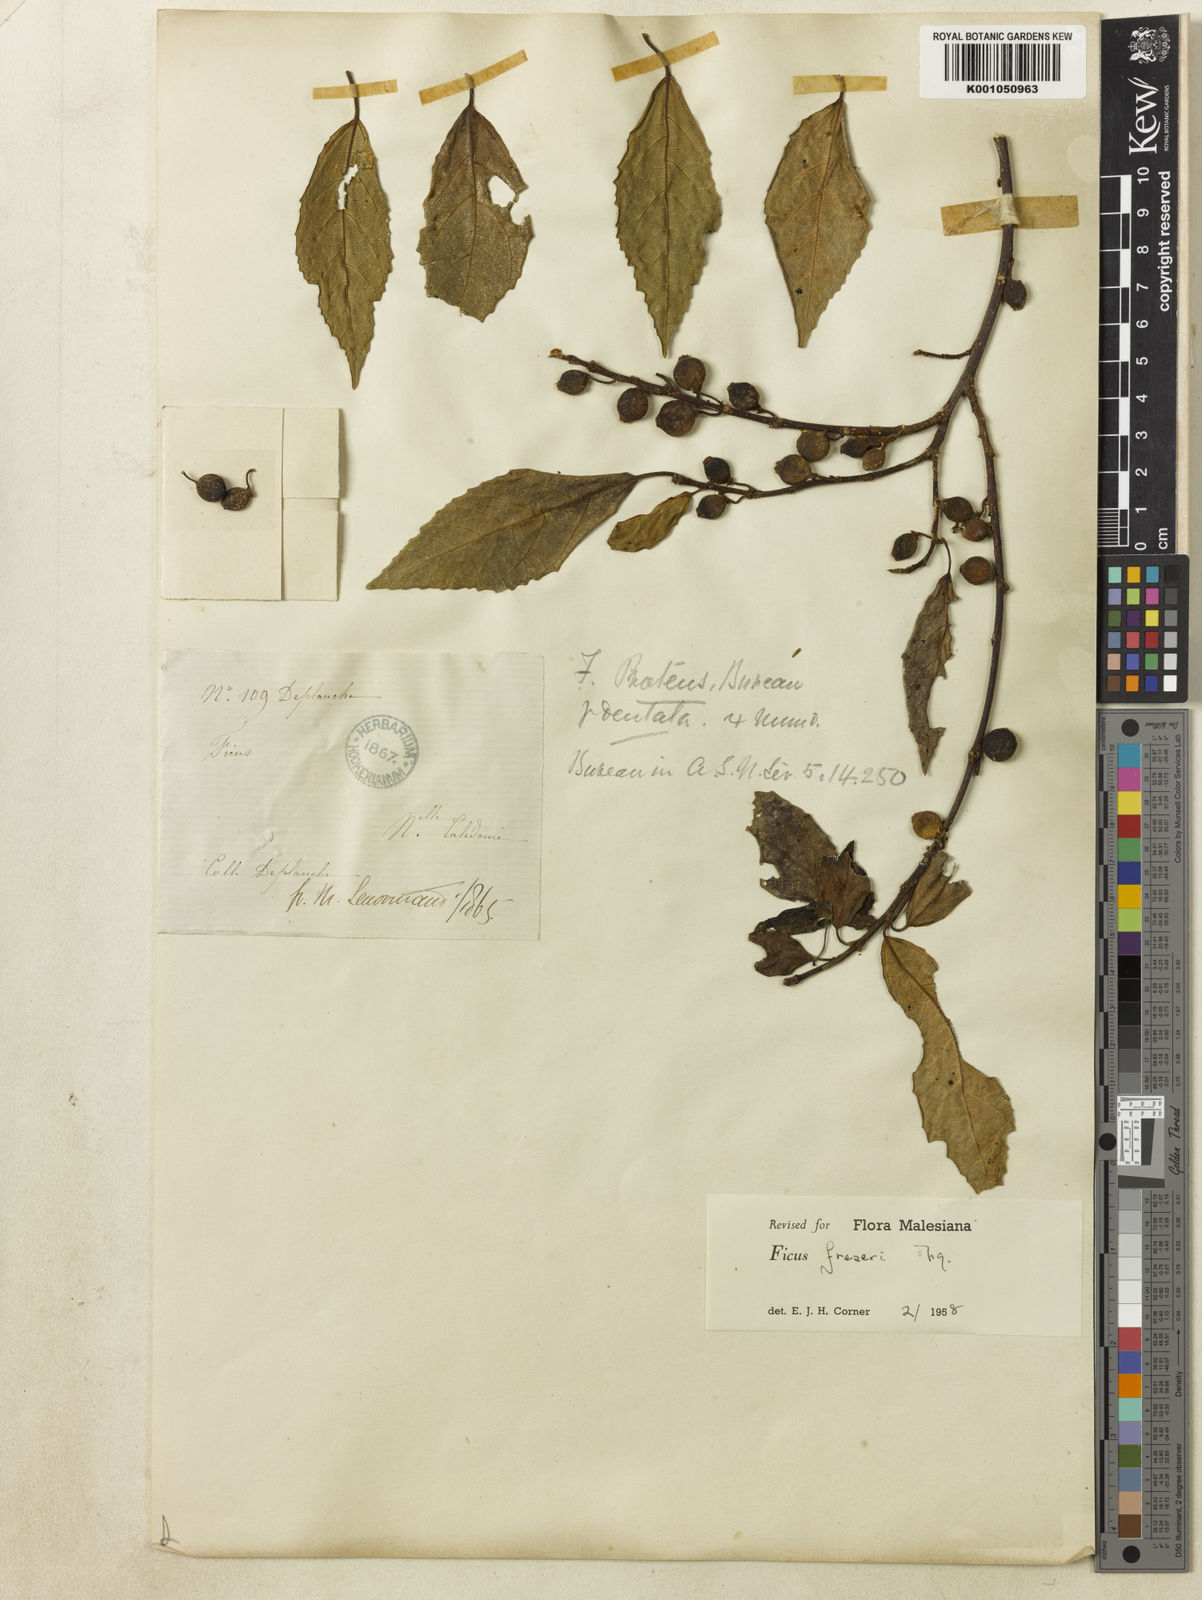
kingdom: Plantae
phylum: Tracheophyta
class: Magnoliopsida
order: Rosales
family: Moraceae
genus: Ficus
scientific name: Ficus fraseri
